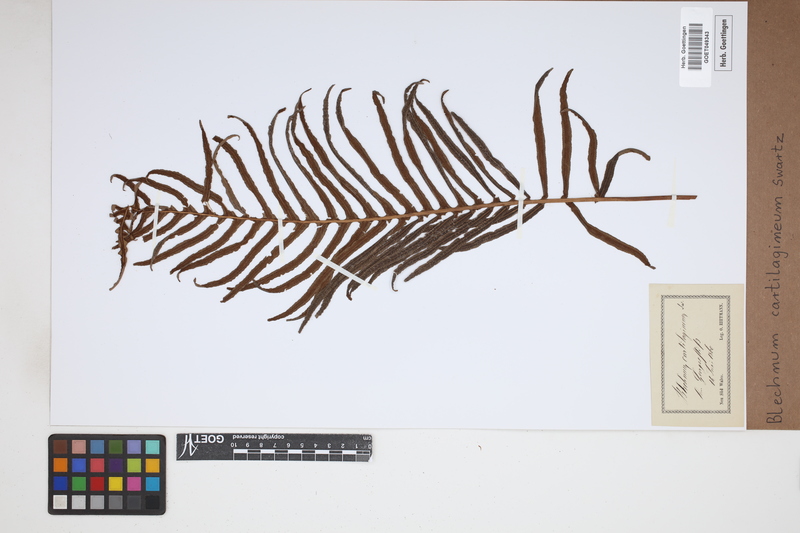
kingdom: Plantae
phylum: Tracheophyta
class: Polypodiopsida
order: Polypodiales
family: Blechnaceae
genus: Oceaniopteris
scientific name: Oceaniopteris cartilaginea
